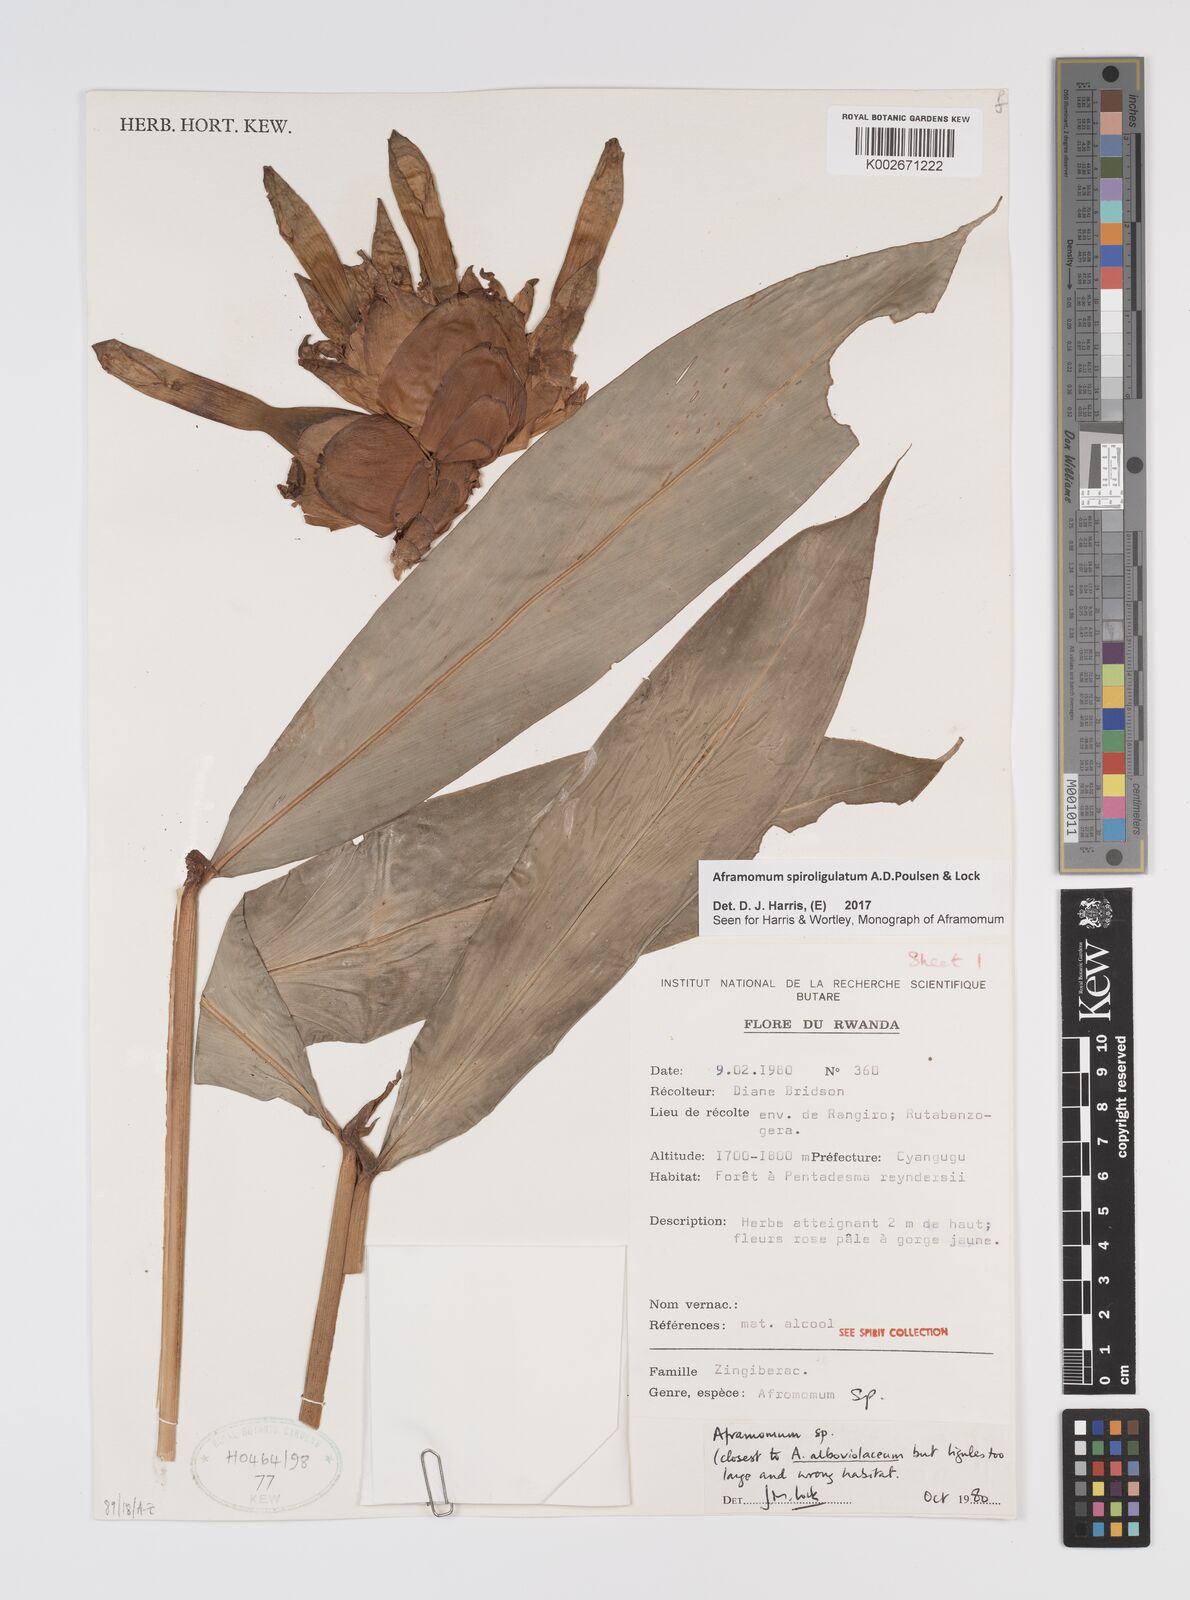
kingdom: Plantae
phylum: Tracheophyta
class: Liliopsida
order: Zingiberales
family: Zingiberaceae
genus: Aframomum
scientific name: Aframomum spiroligulatum
